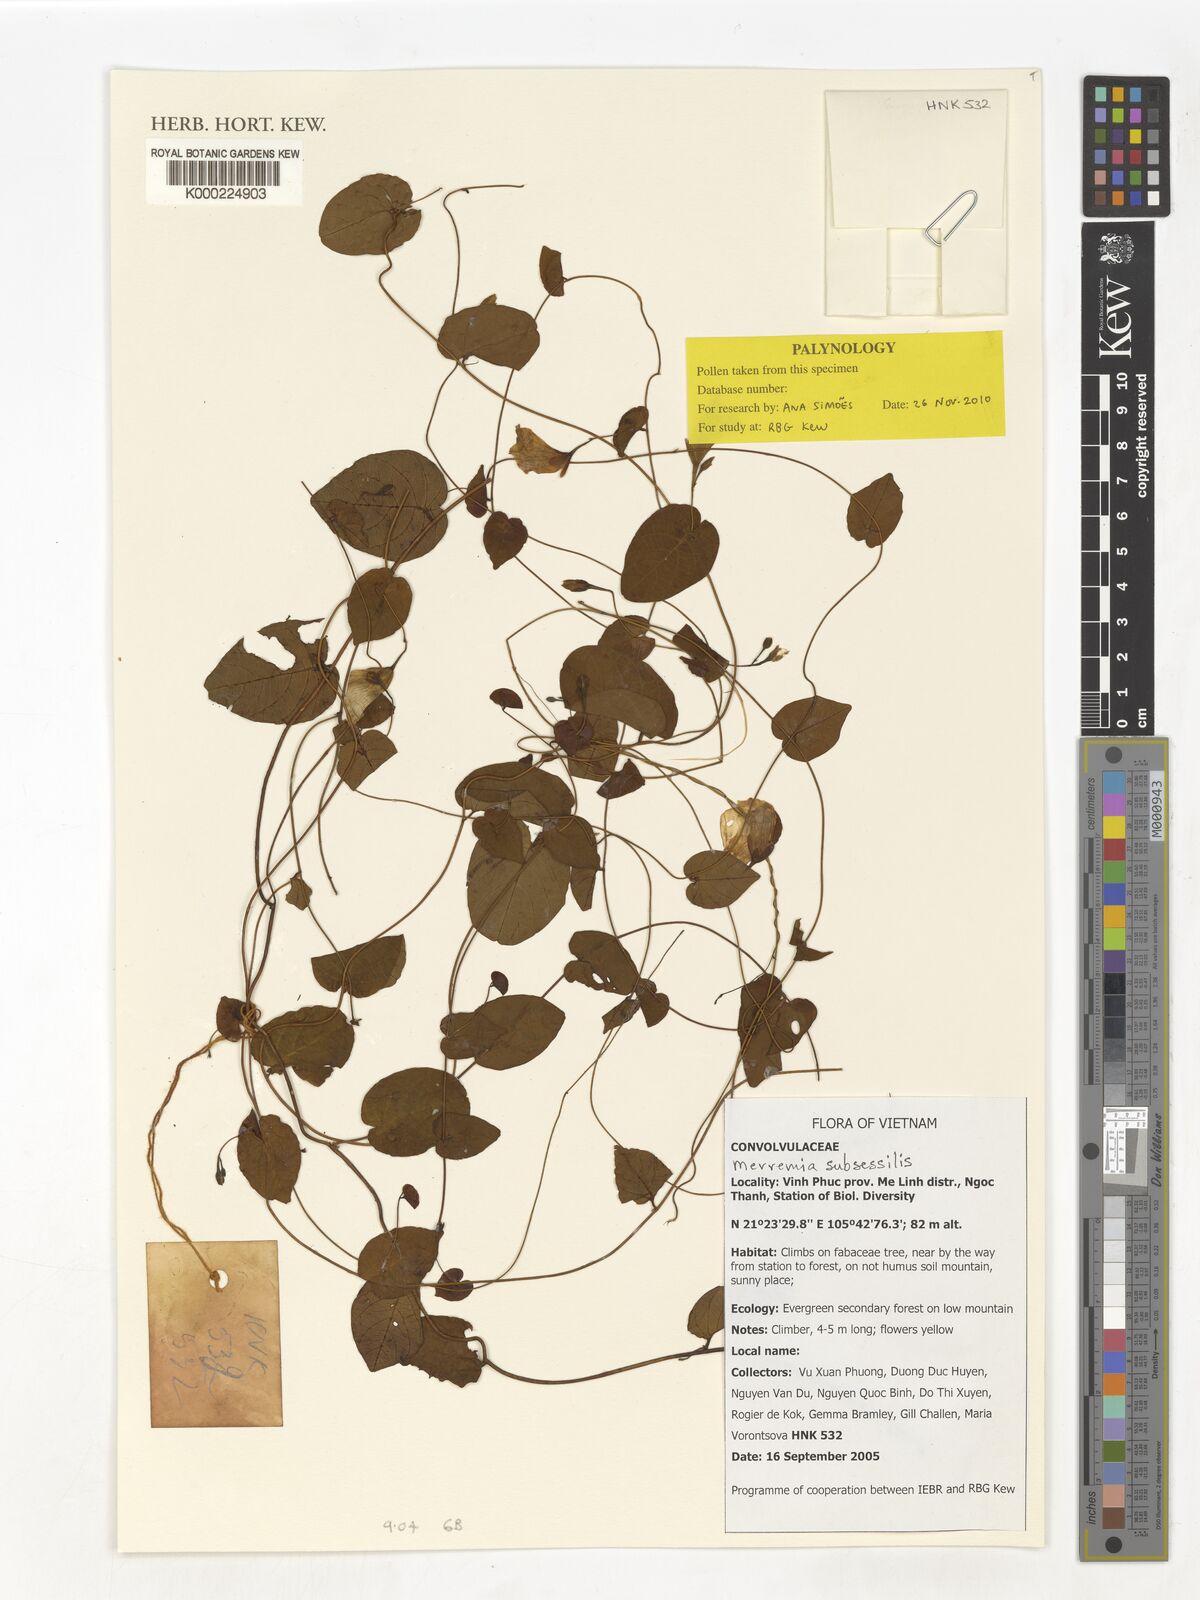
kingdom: Plantae
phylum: Tracheophyta
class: Magnoliopsida
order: Solanales
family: Convolvulaceae
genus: Merremia
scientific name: Merremia
